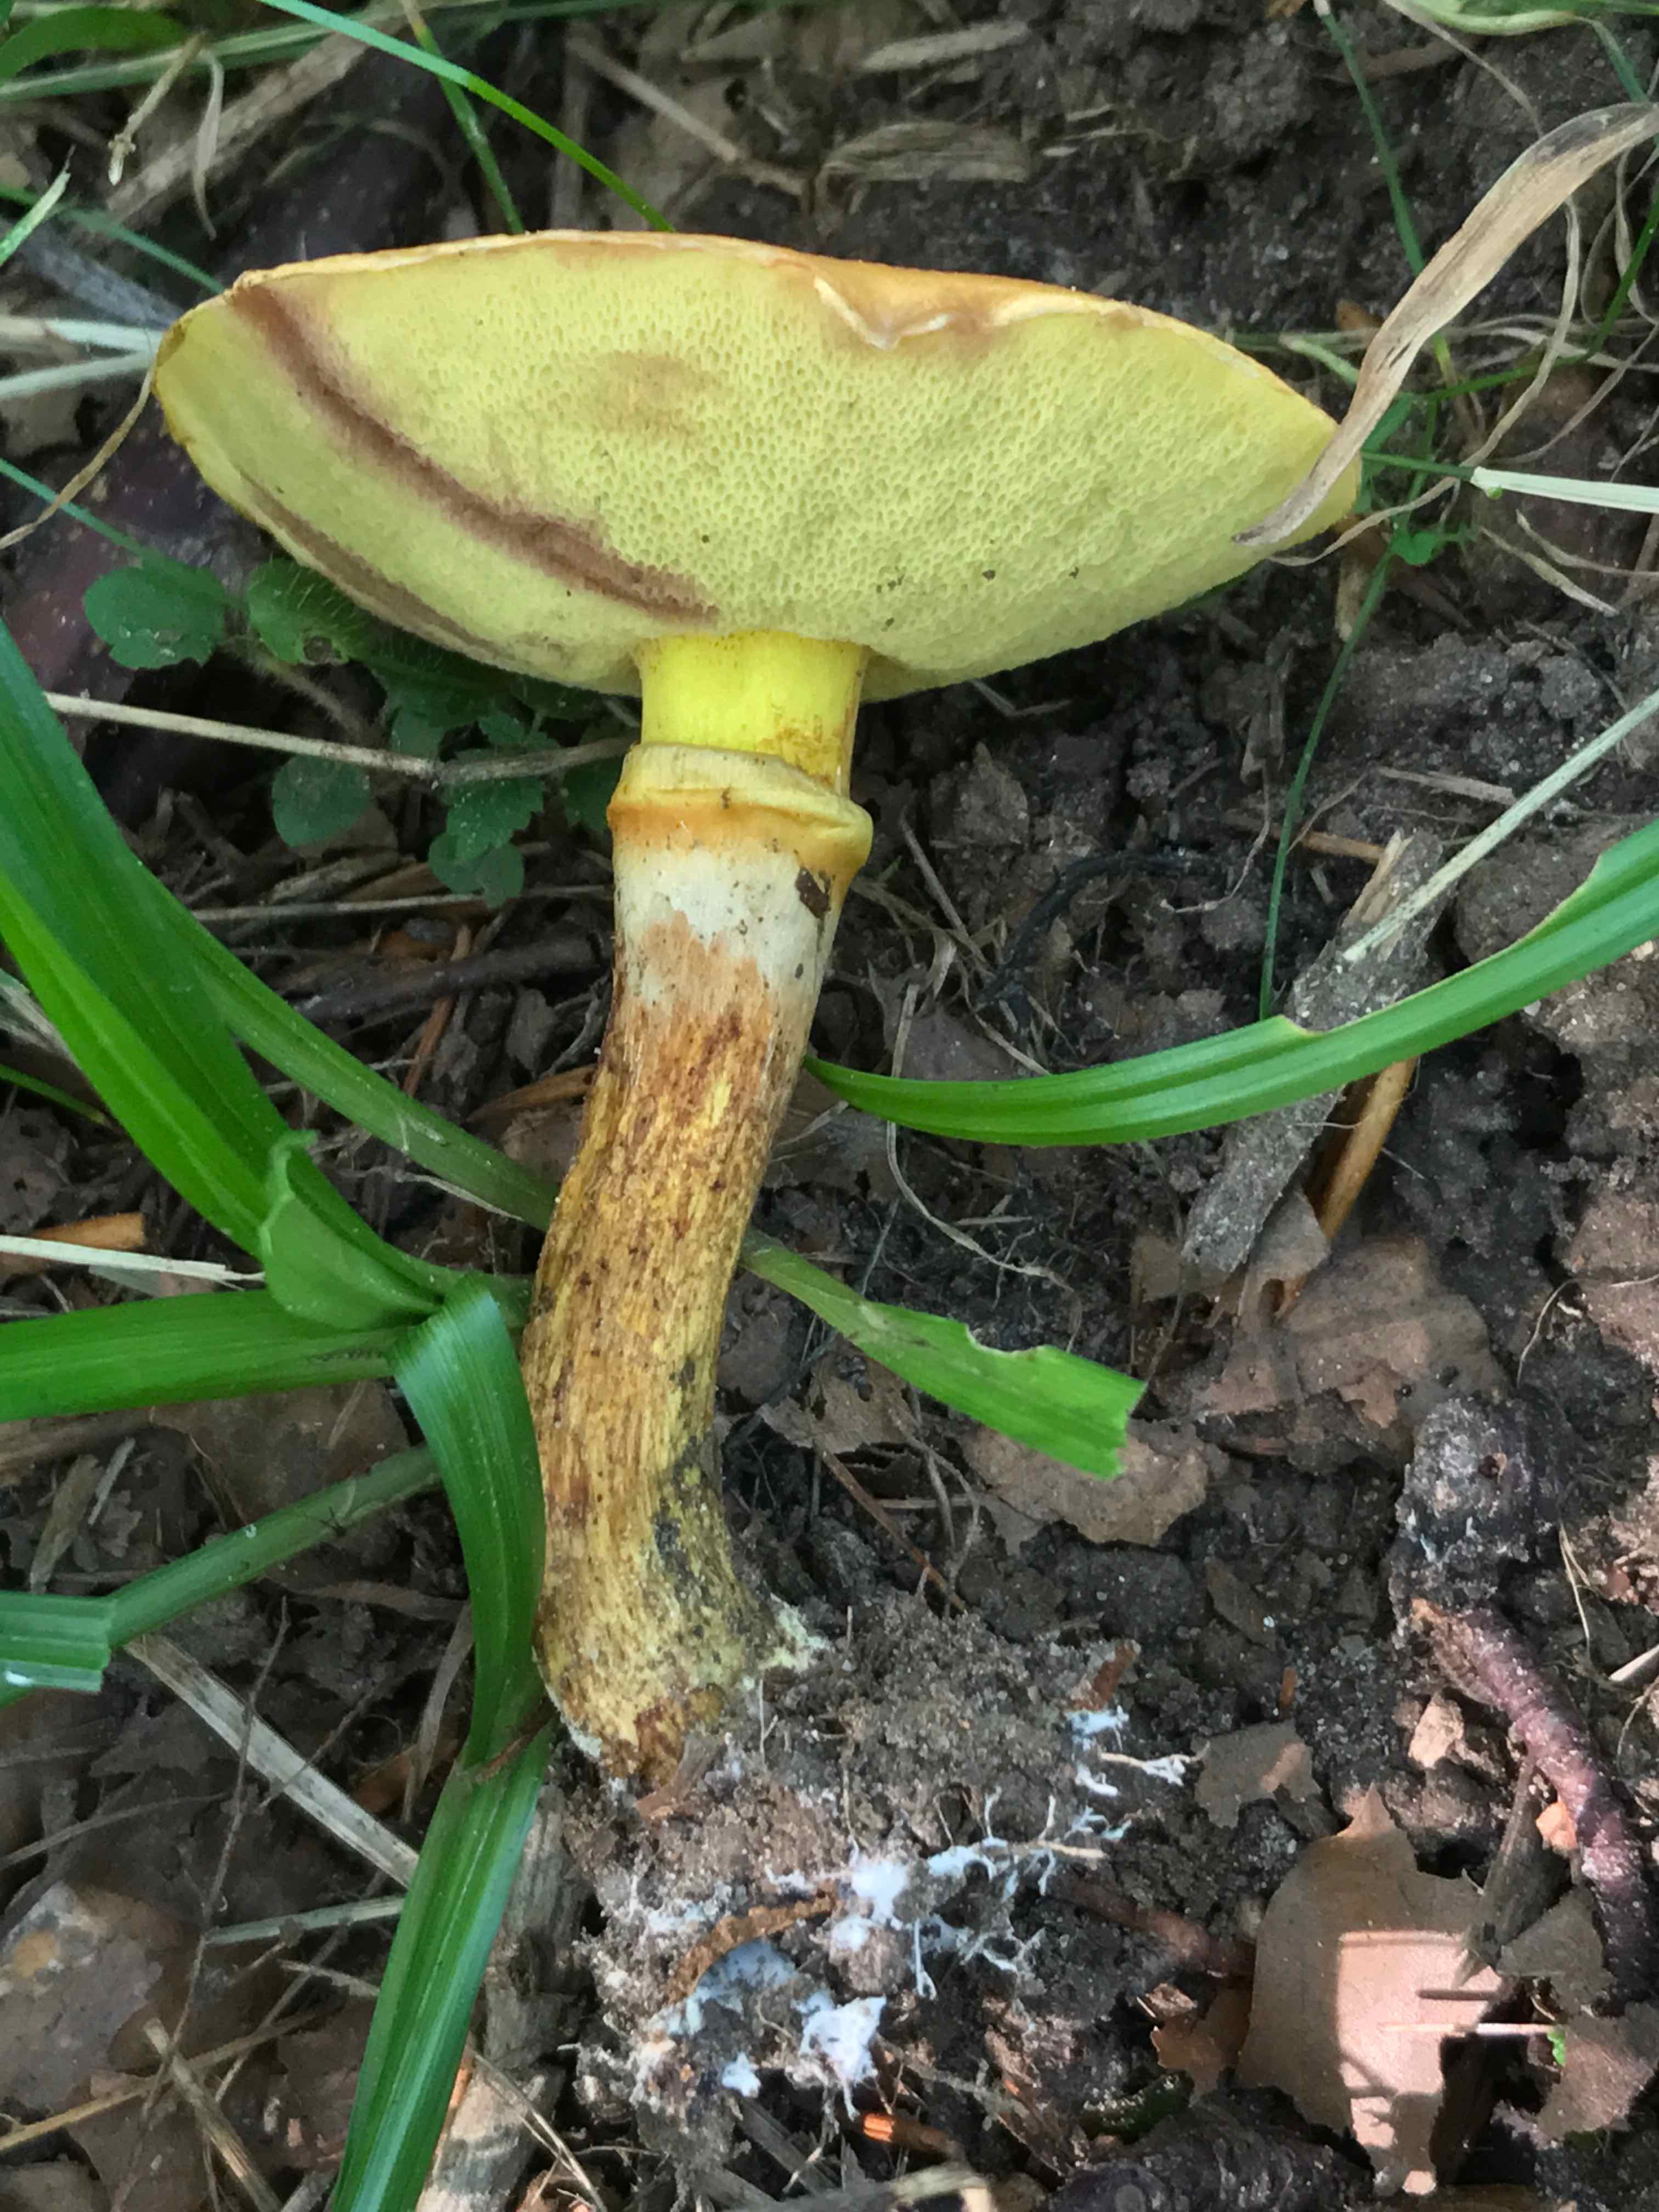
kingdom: Fungi
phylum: Basidiomycota
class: Agaricomycetes
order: Boletales
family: Suillaceae
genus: Suillus
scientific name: Suillus grevillei
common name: lærke-slimrørhat
